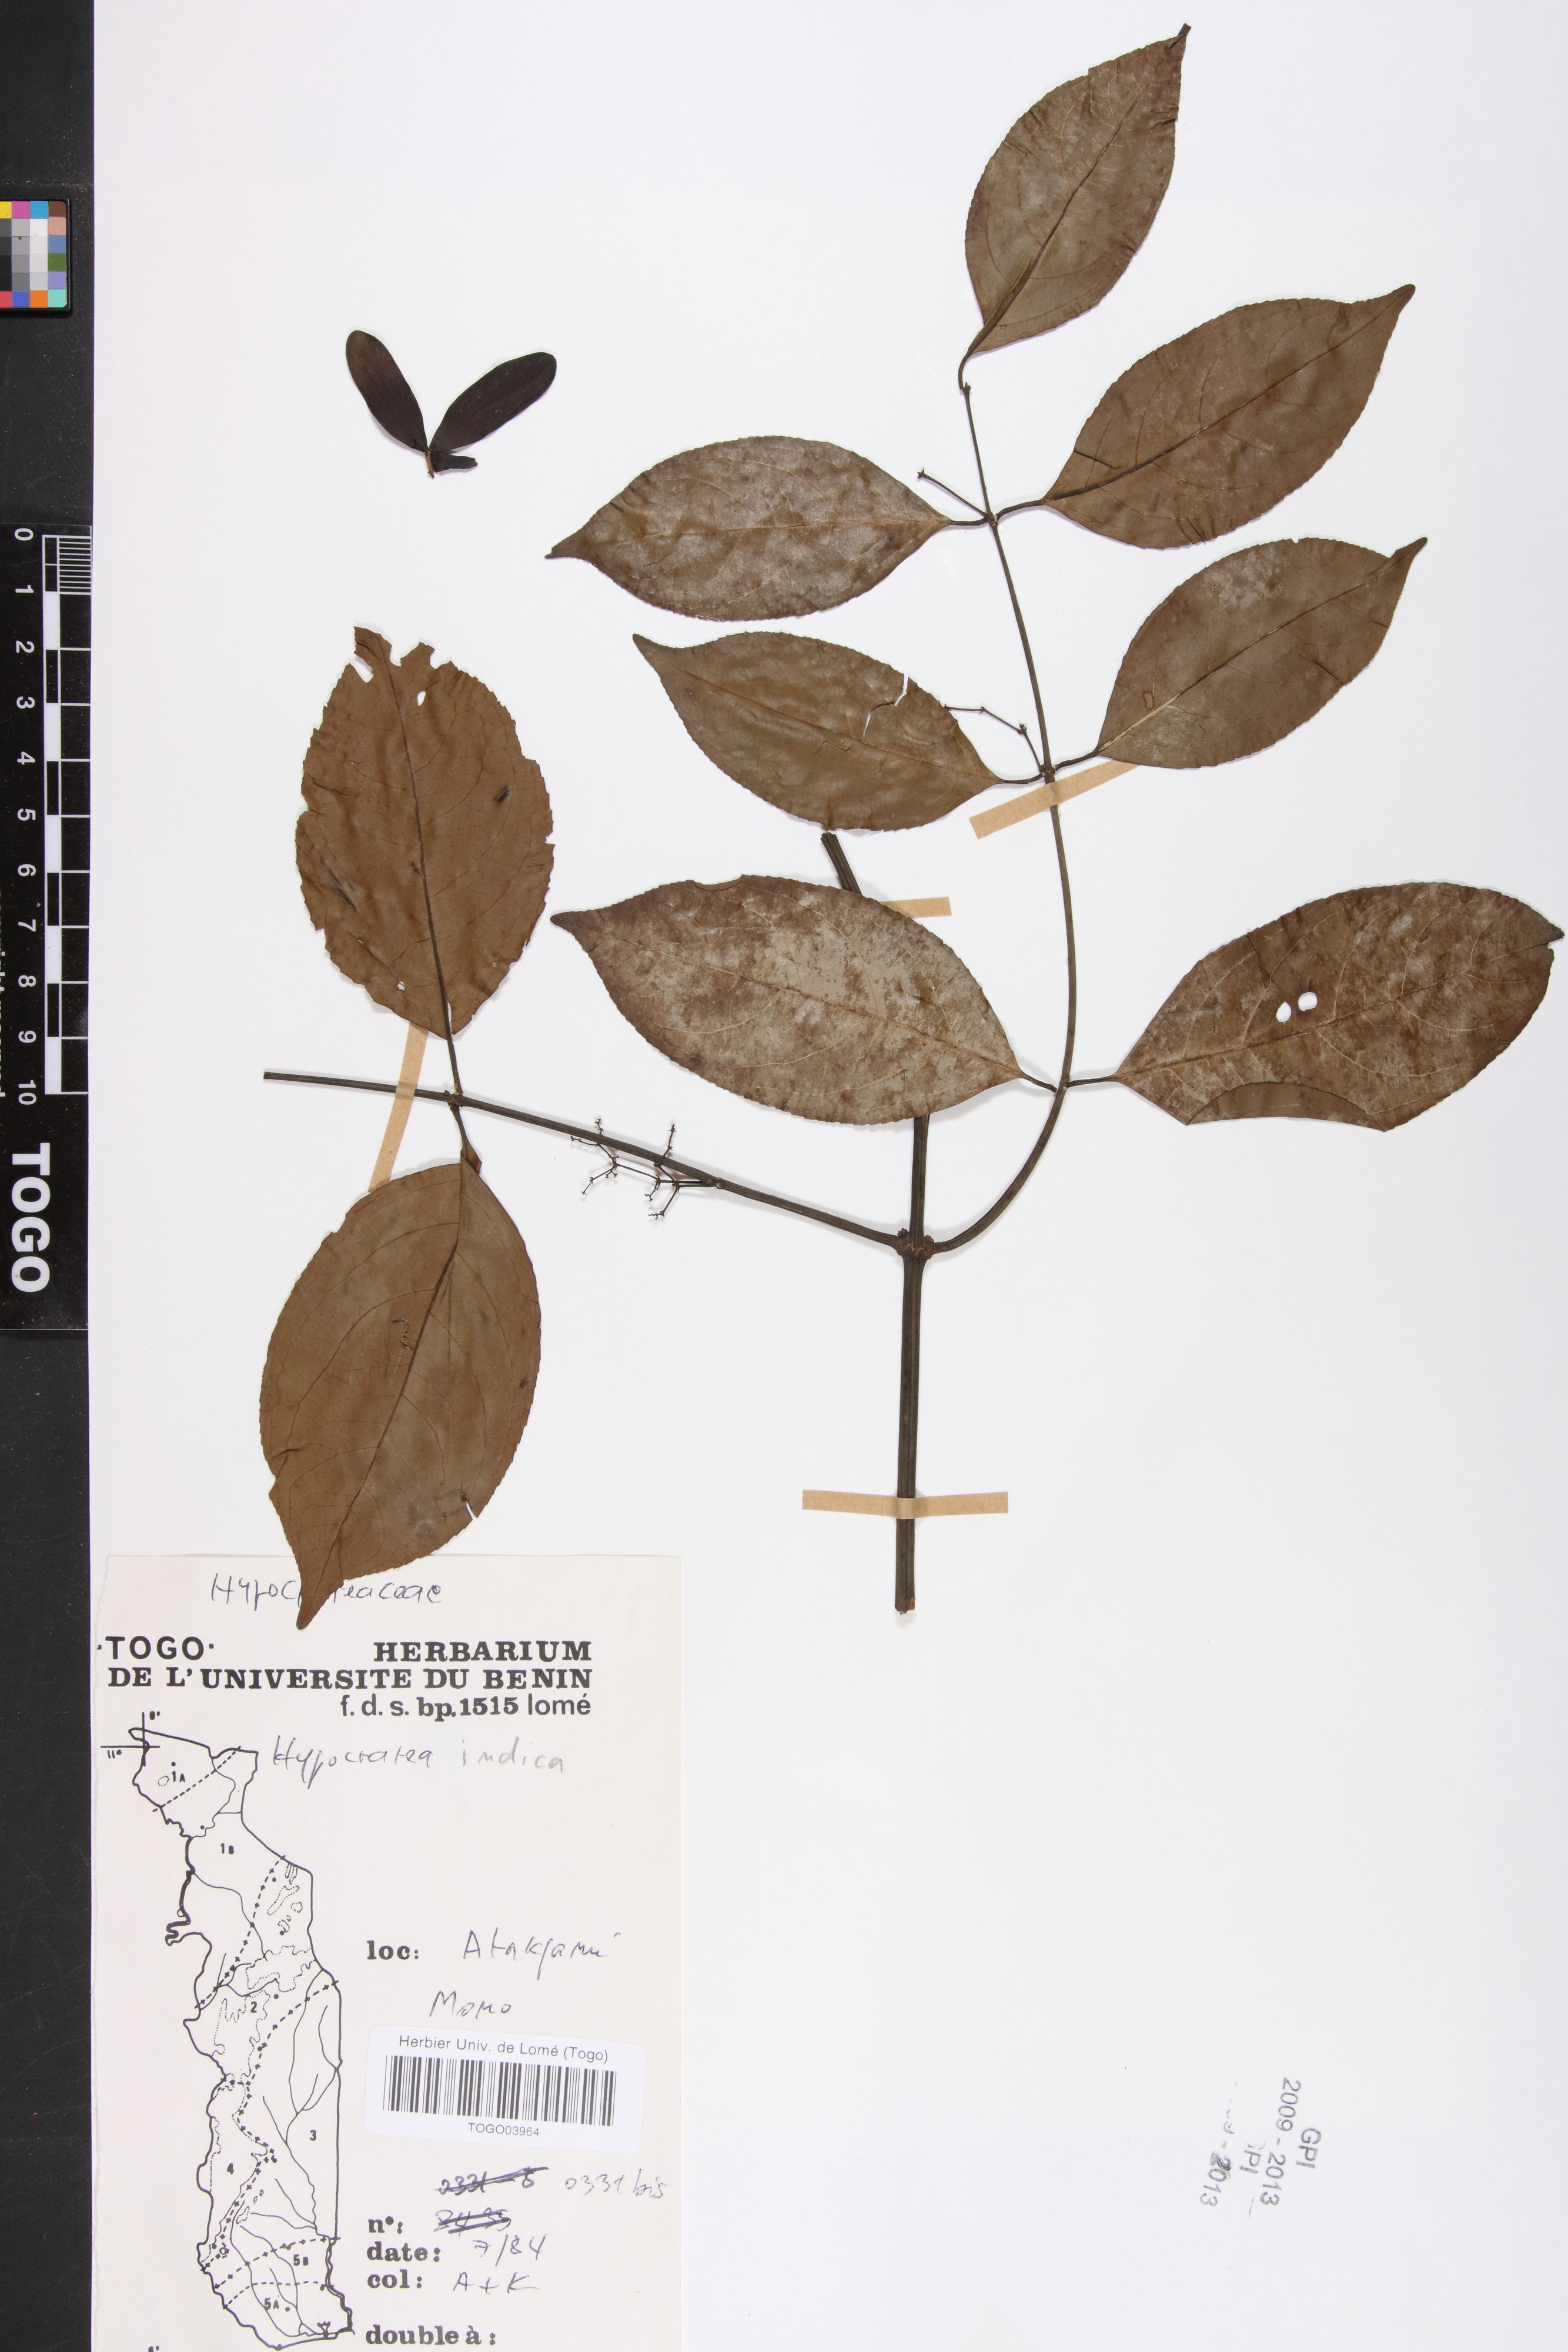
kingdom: Plantae
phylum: Tracheophyta
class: Magnoliopsida
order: Celastrales
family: Celastraceae
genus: Reissantia
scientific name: Reissantia indica
